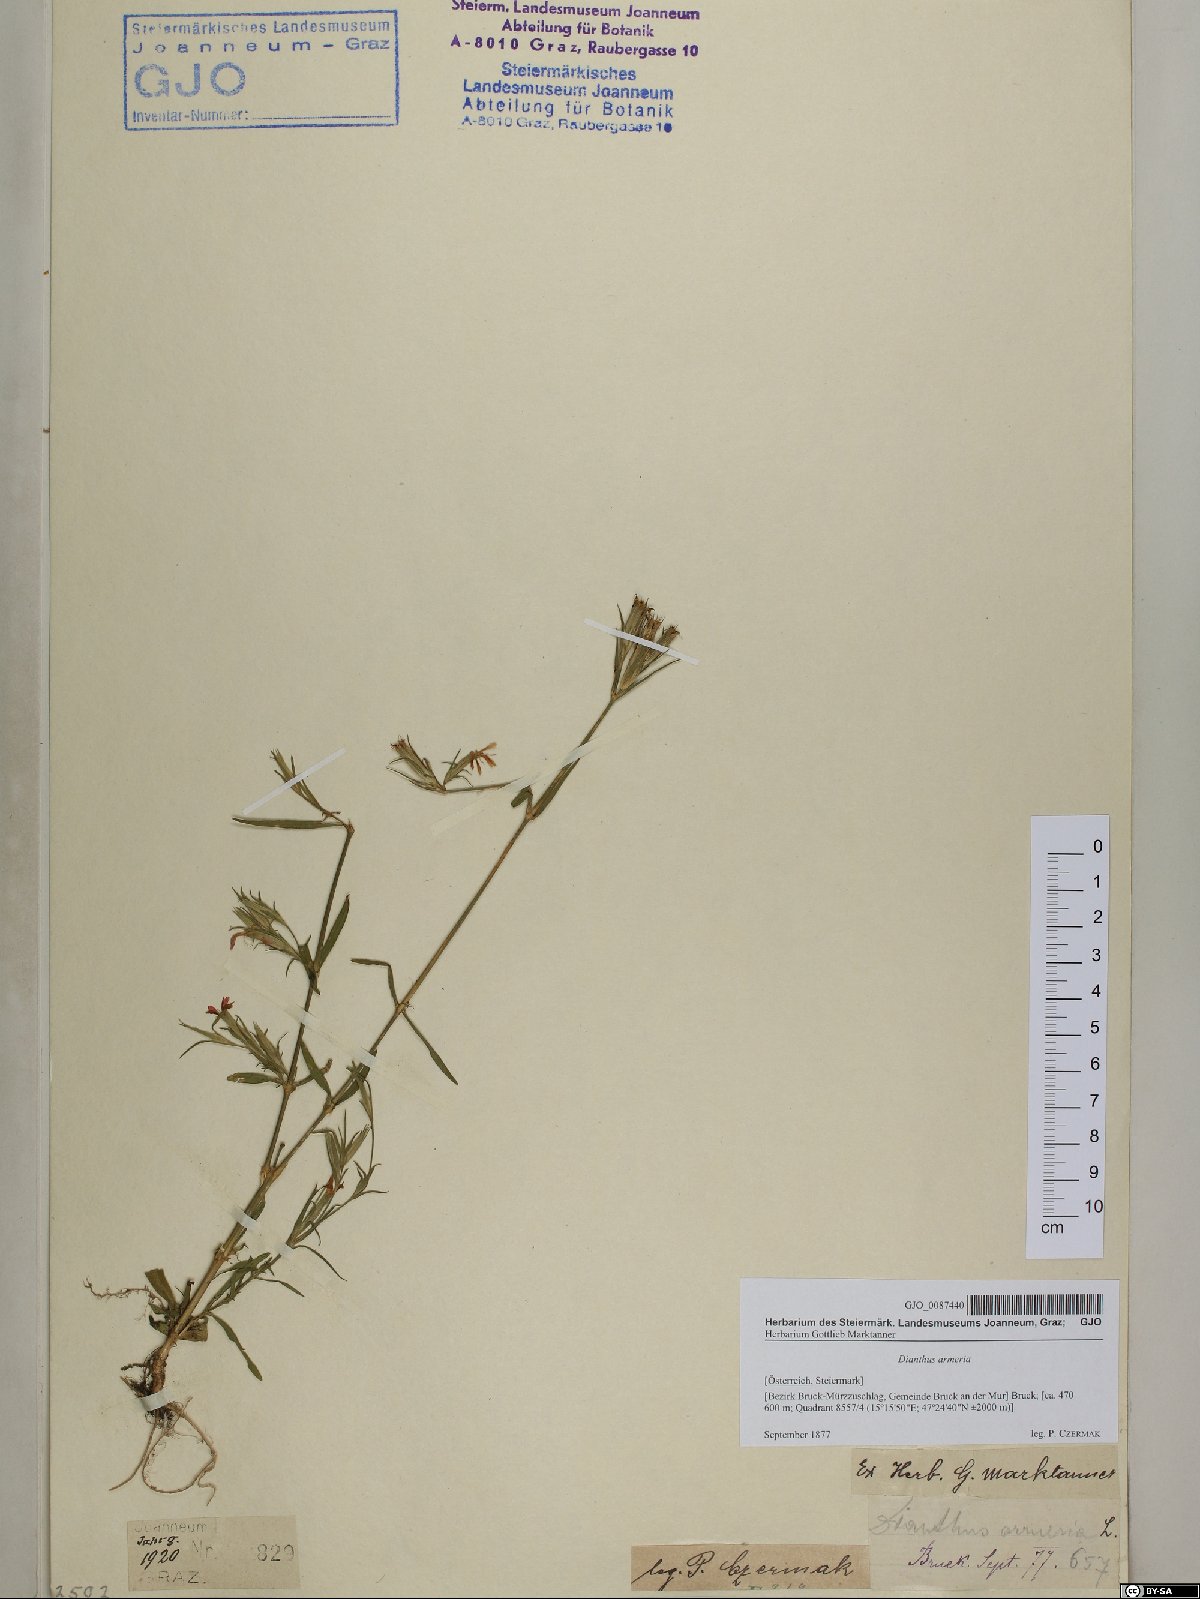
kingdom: Plantae
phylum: Tracheophyta
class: Magnoliopsida
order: Caryophyllales
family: Caryophyllaceae
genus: Dianthus
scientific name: Dianthus armeria
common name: Deptford pink
